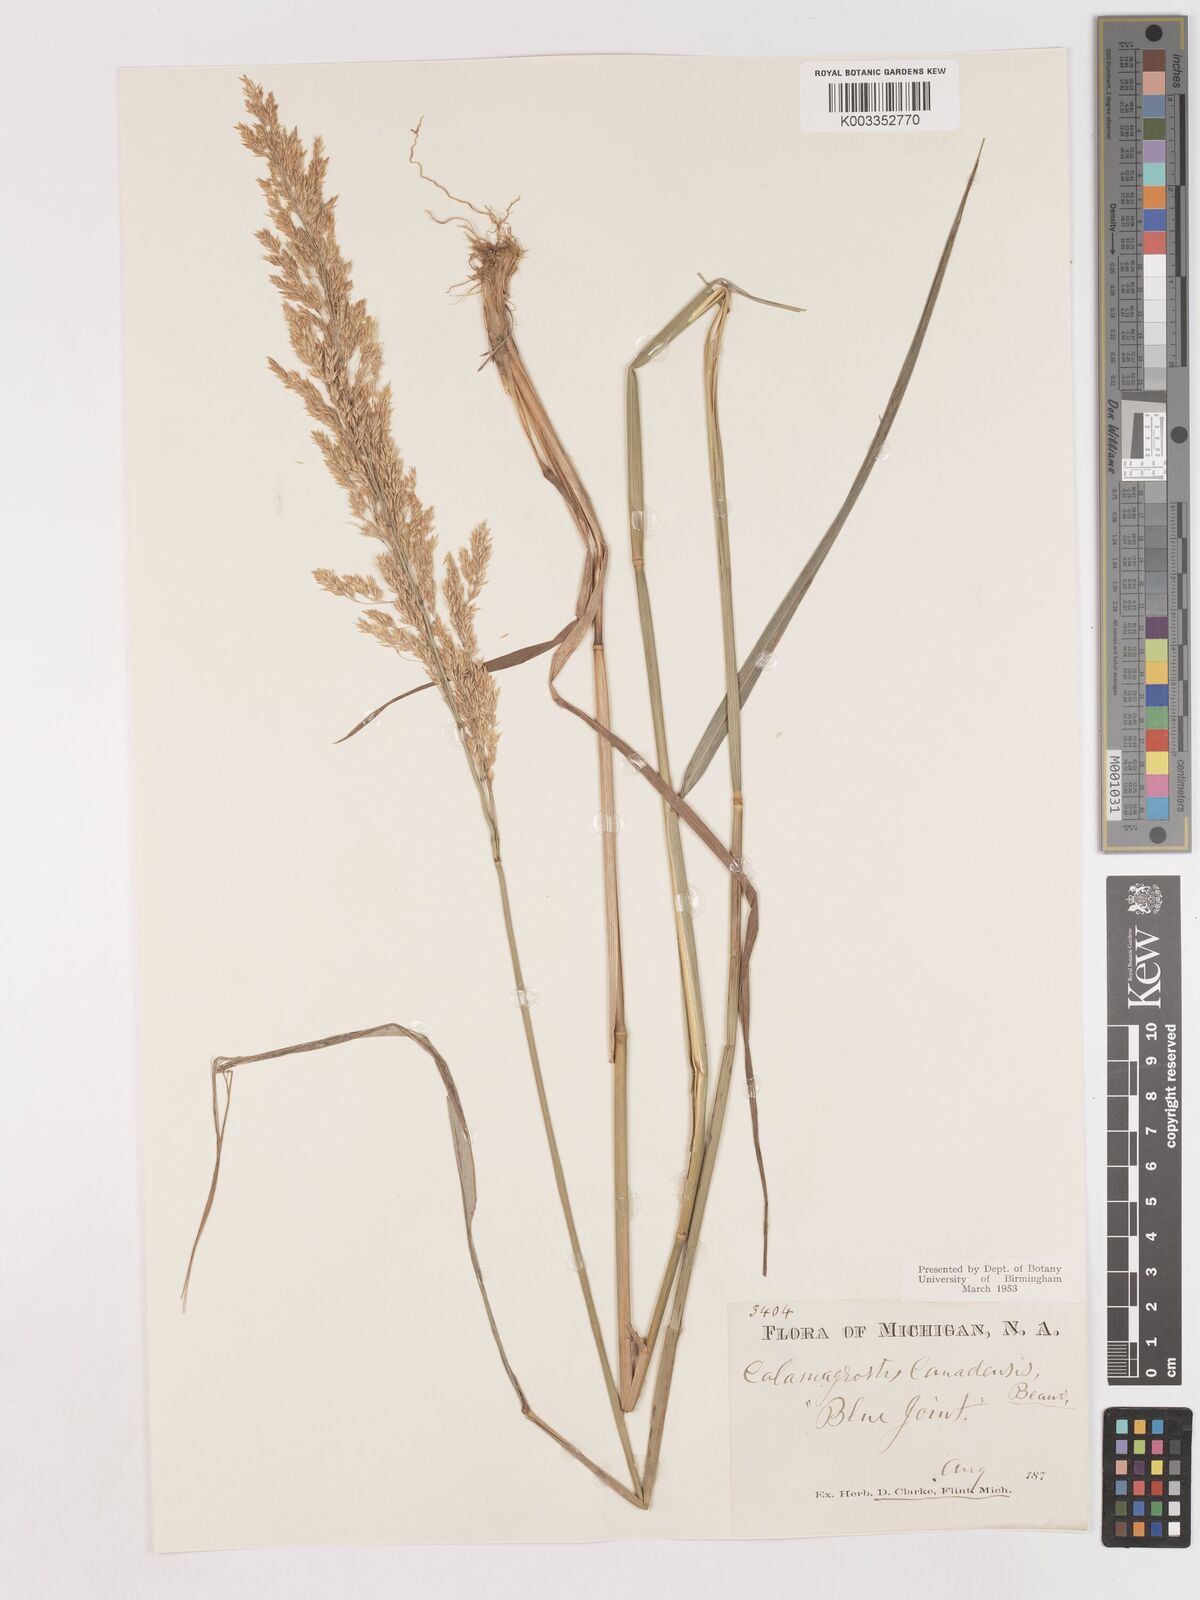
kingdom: Plantae
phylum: Tracheophyta
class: Liliopsida
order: Poales
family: Poaceae
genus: Calamagrostis
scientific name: Calamagrostis canadensis
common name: Canada bluejoint
